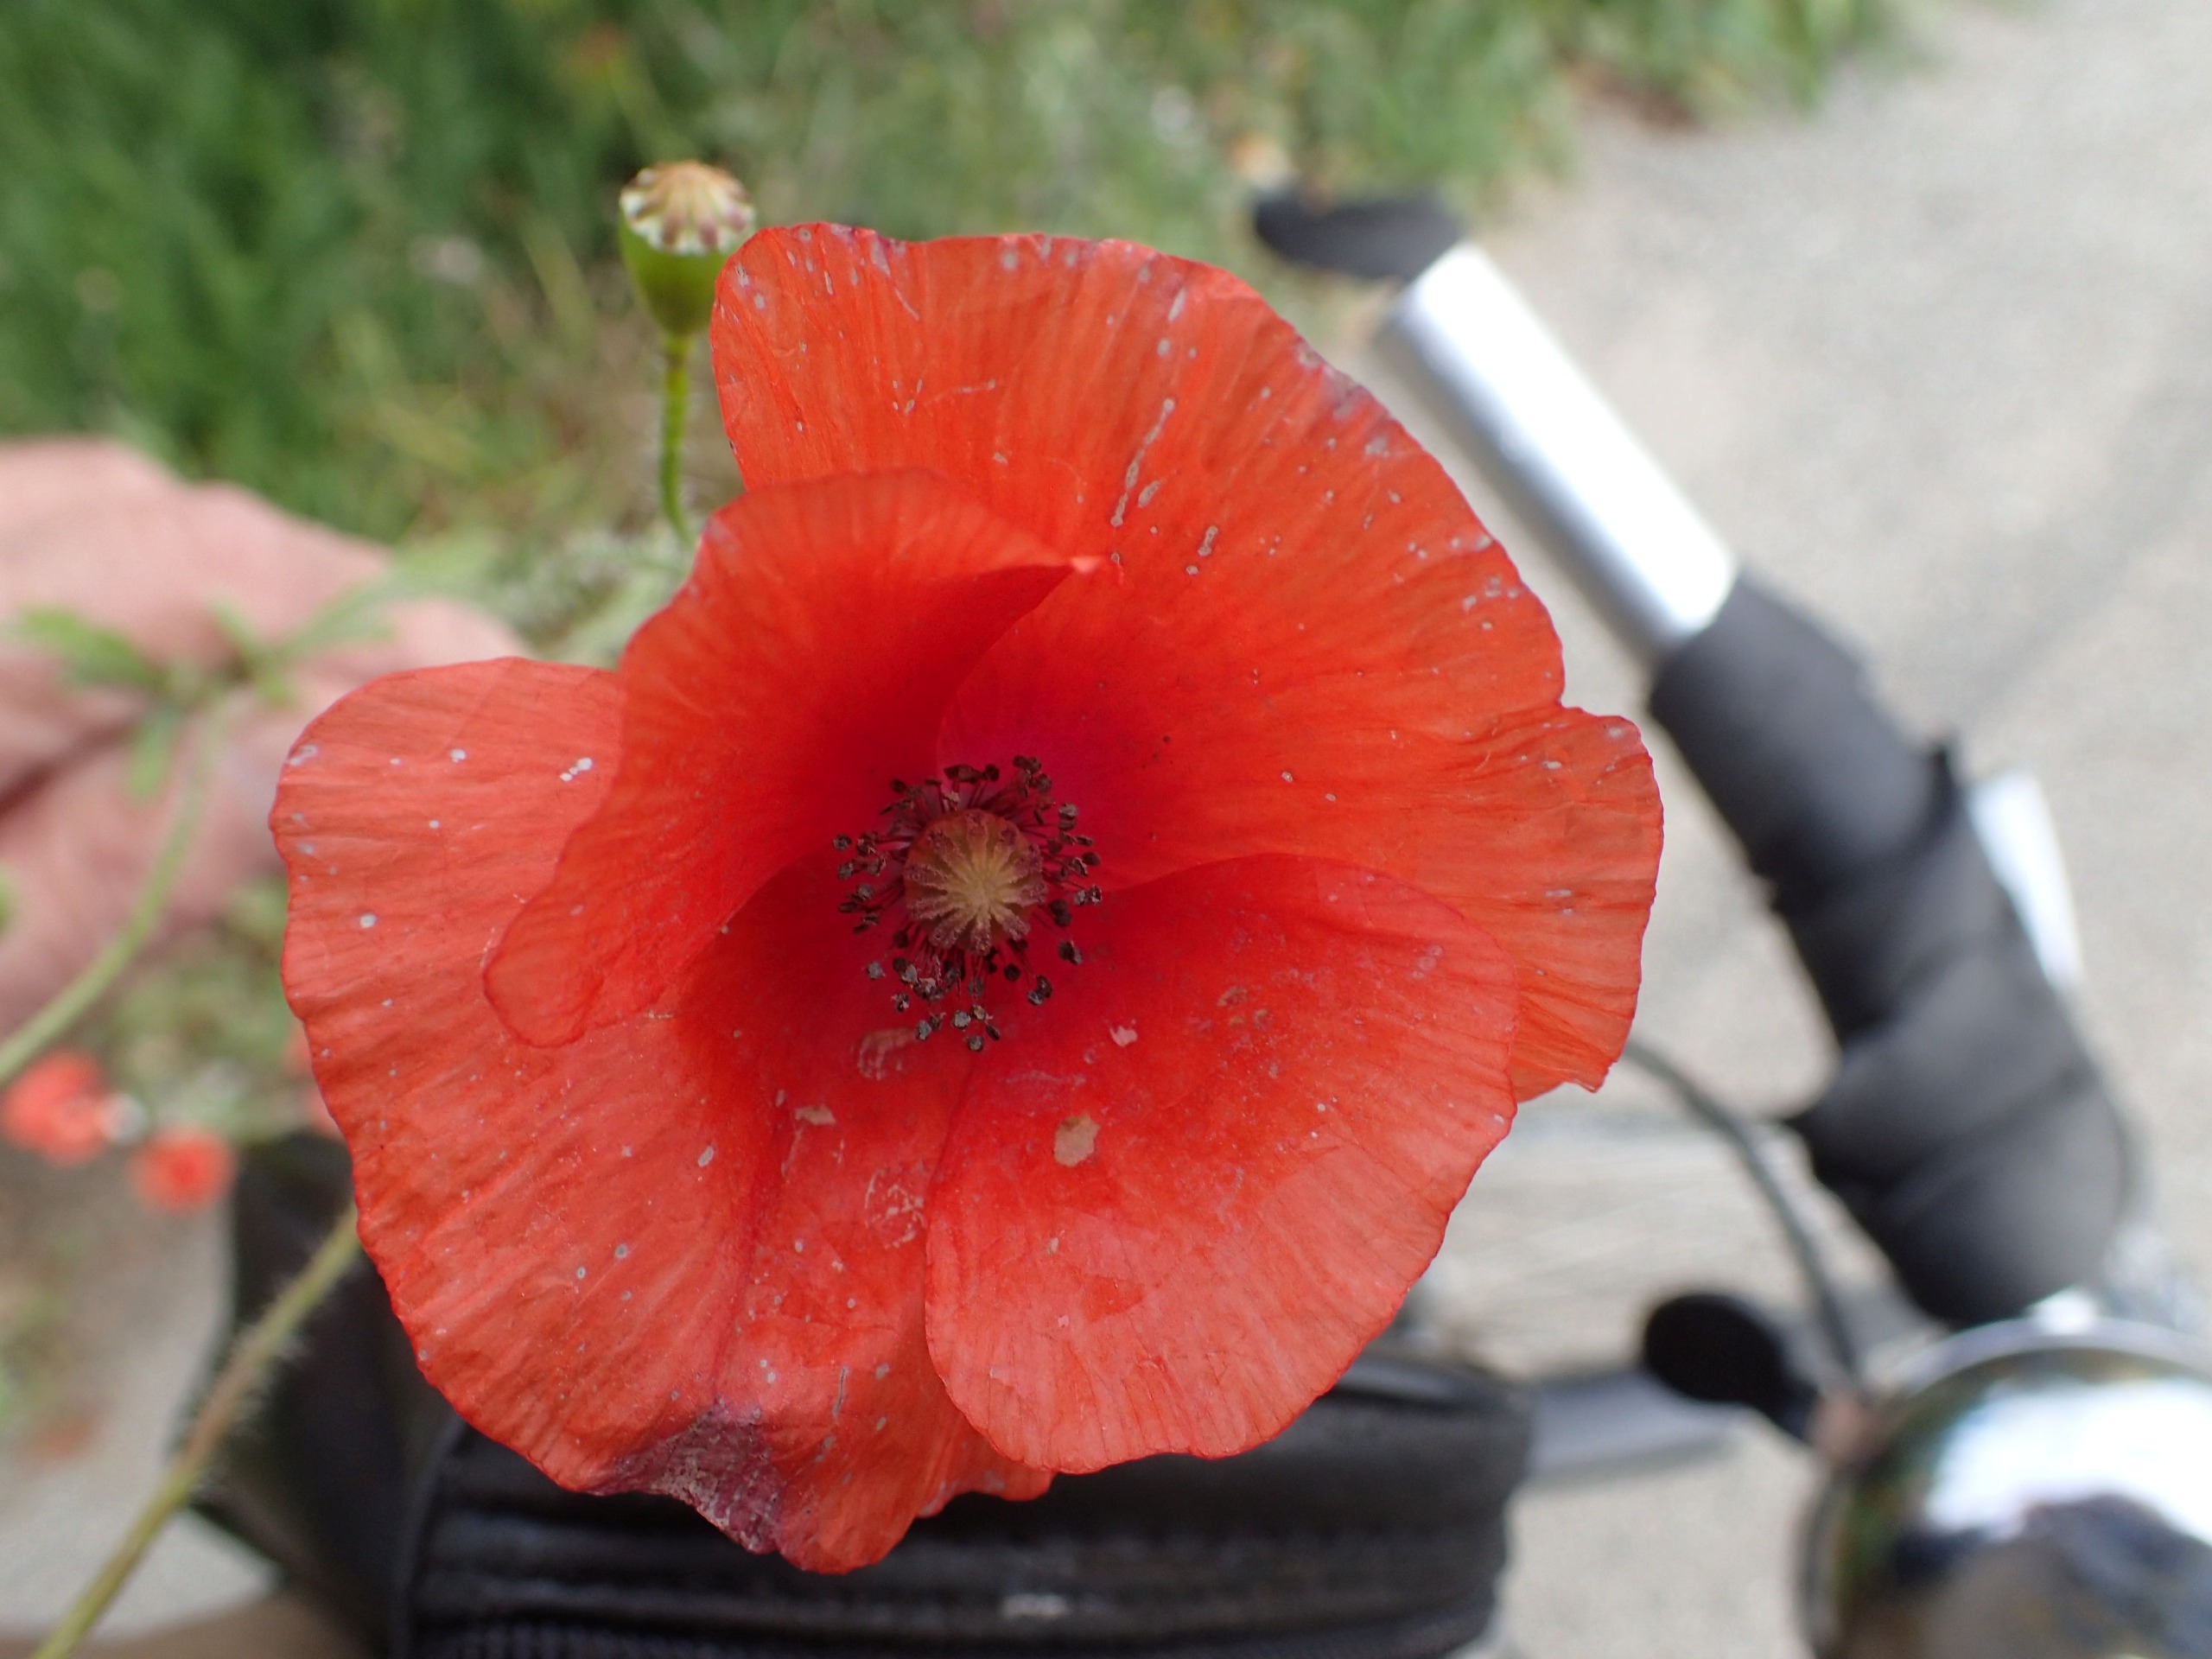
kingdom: Plantae
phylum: Tracheophyta
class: Magnoliopsida
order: Ranunculales
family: Papaveraceae
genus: Papaver
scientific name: Papaver rhoeas
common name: Korn-valmue
